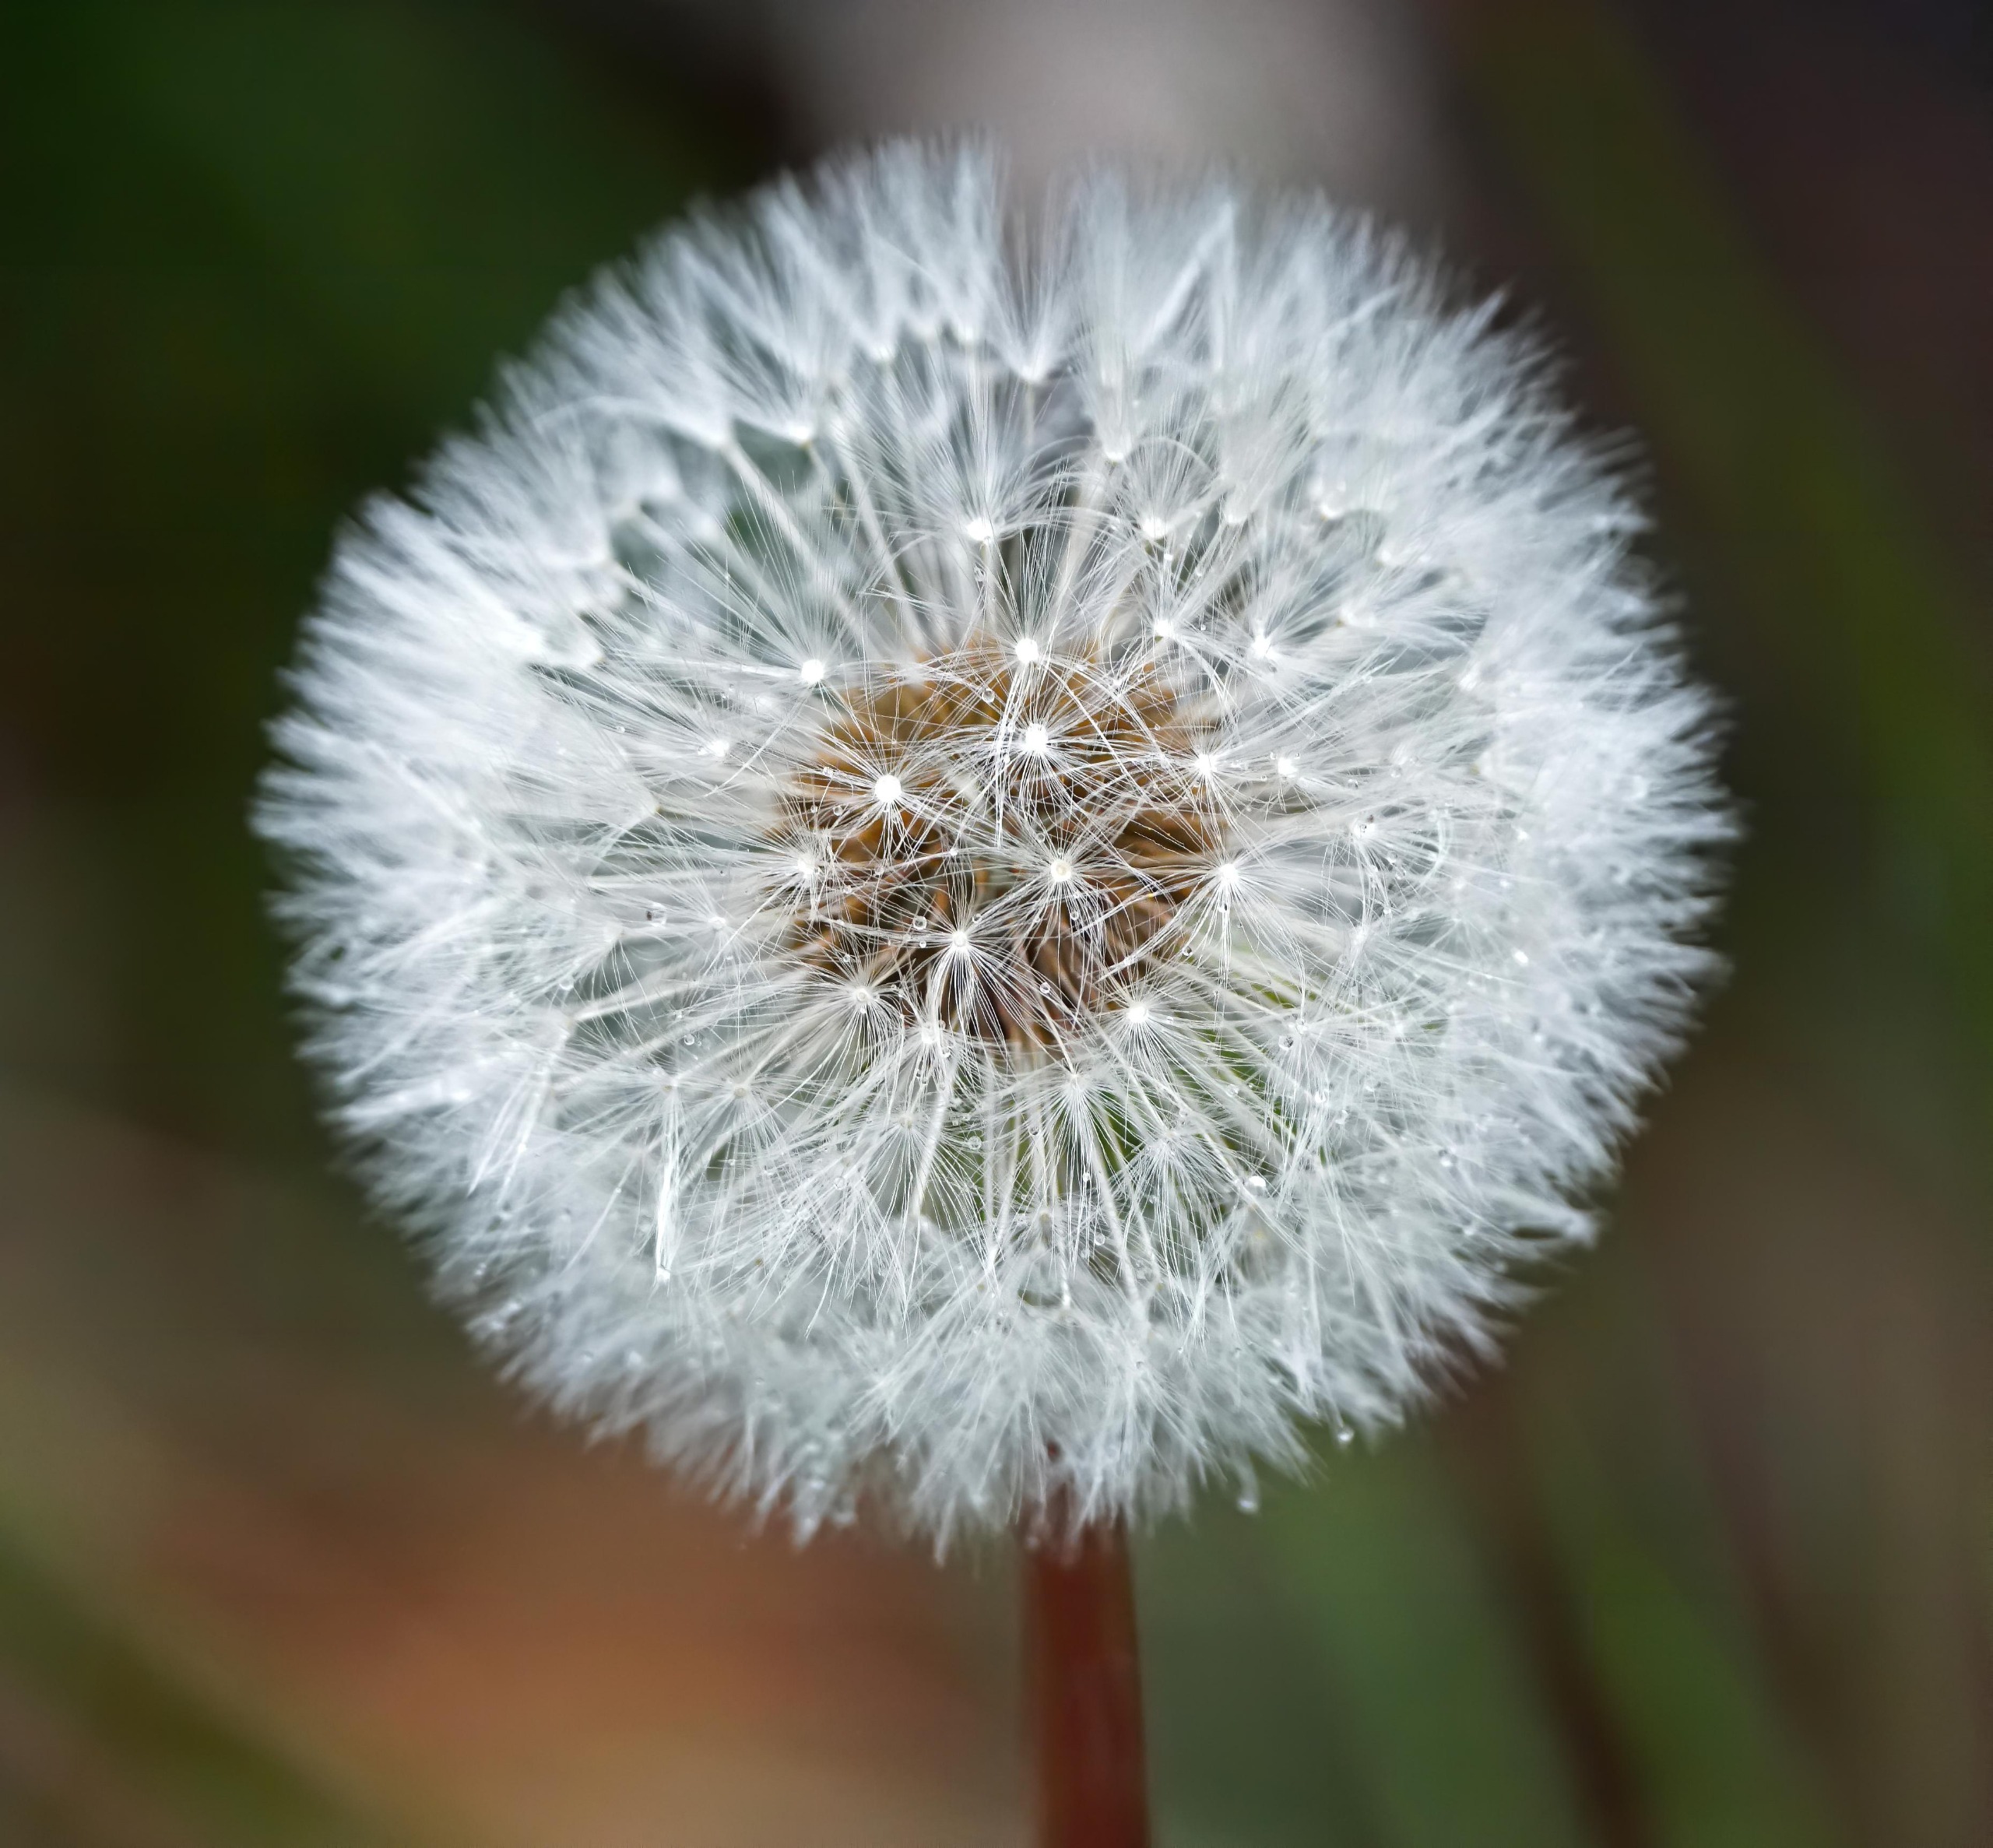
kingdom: Plantae
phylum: Tracheophyta
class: Magnoliopsida
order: Asterales
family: Asteraceae
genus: Taraxacum
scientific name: Taraxacum
